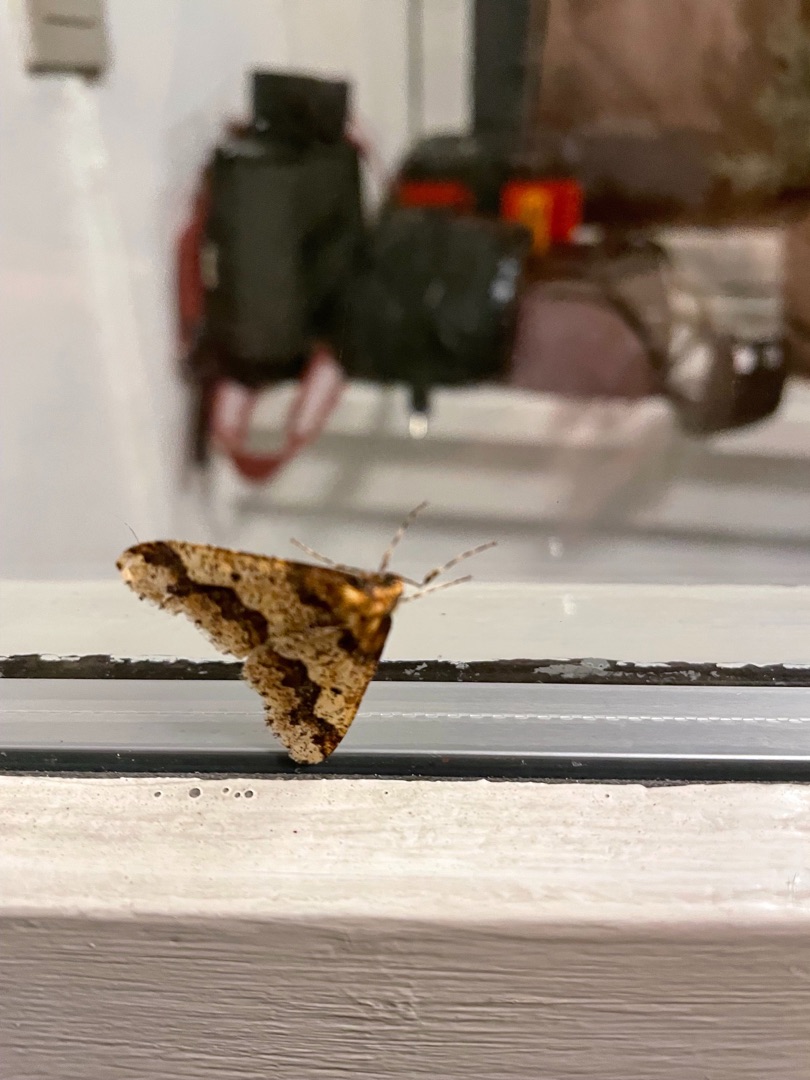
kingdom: Animalia
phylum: Arthropoda
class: Insecta
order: Lepidoptera
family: Geometridae
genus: Erannis
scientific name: Erannis defoliaria
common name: Stor frostmåler
